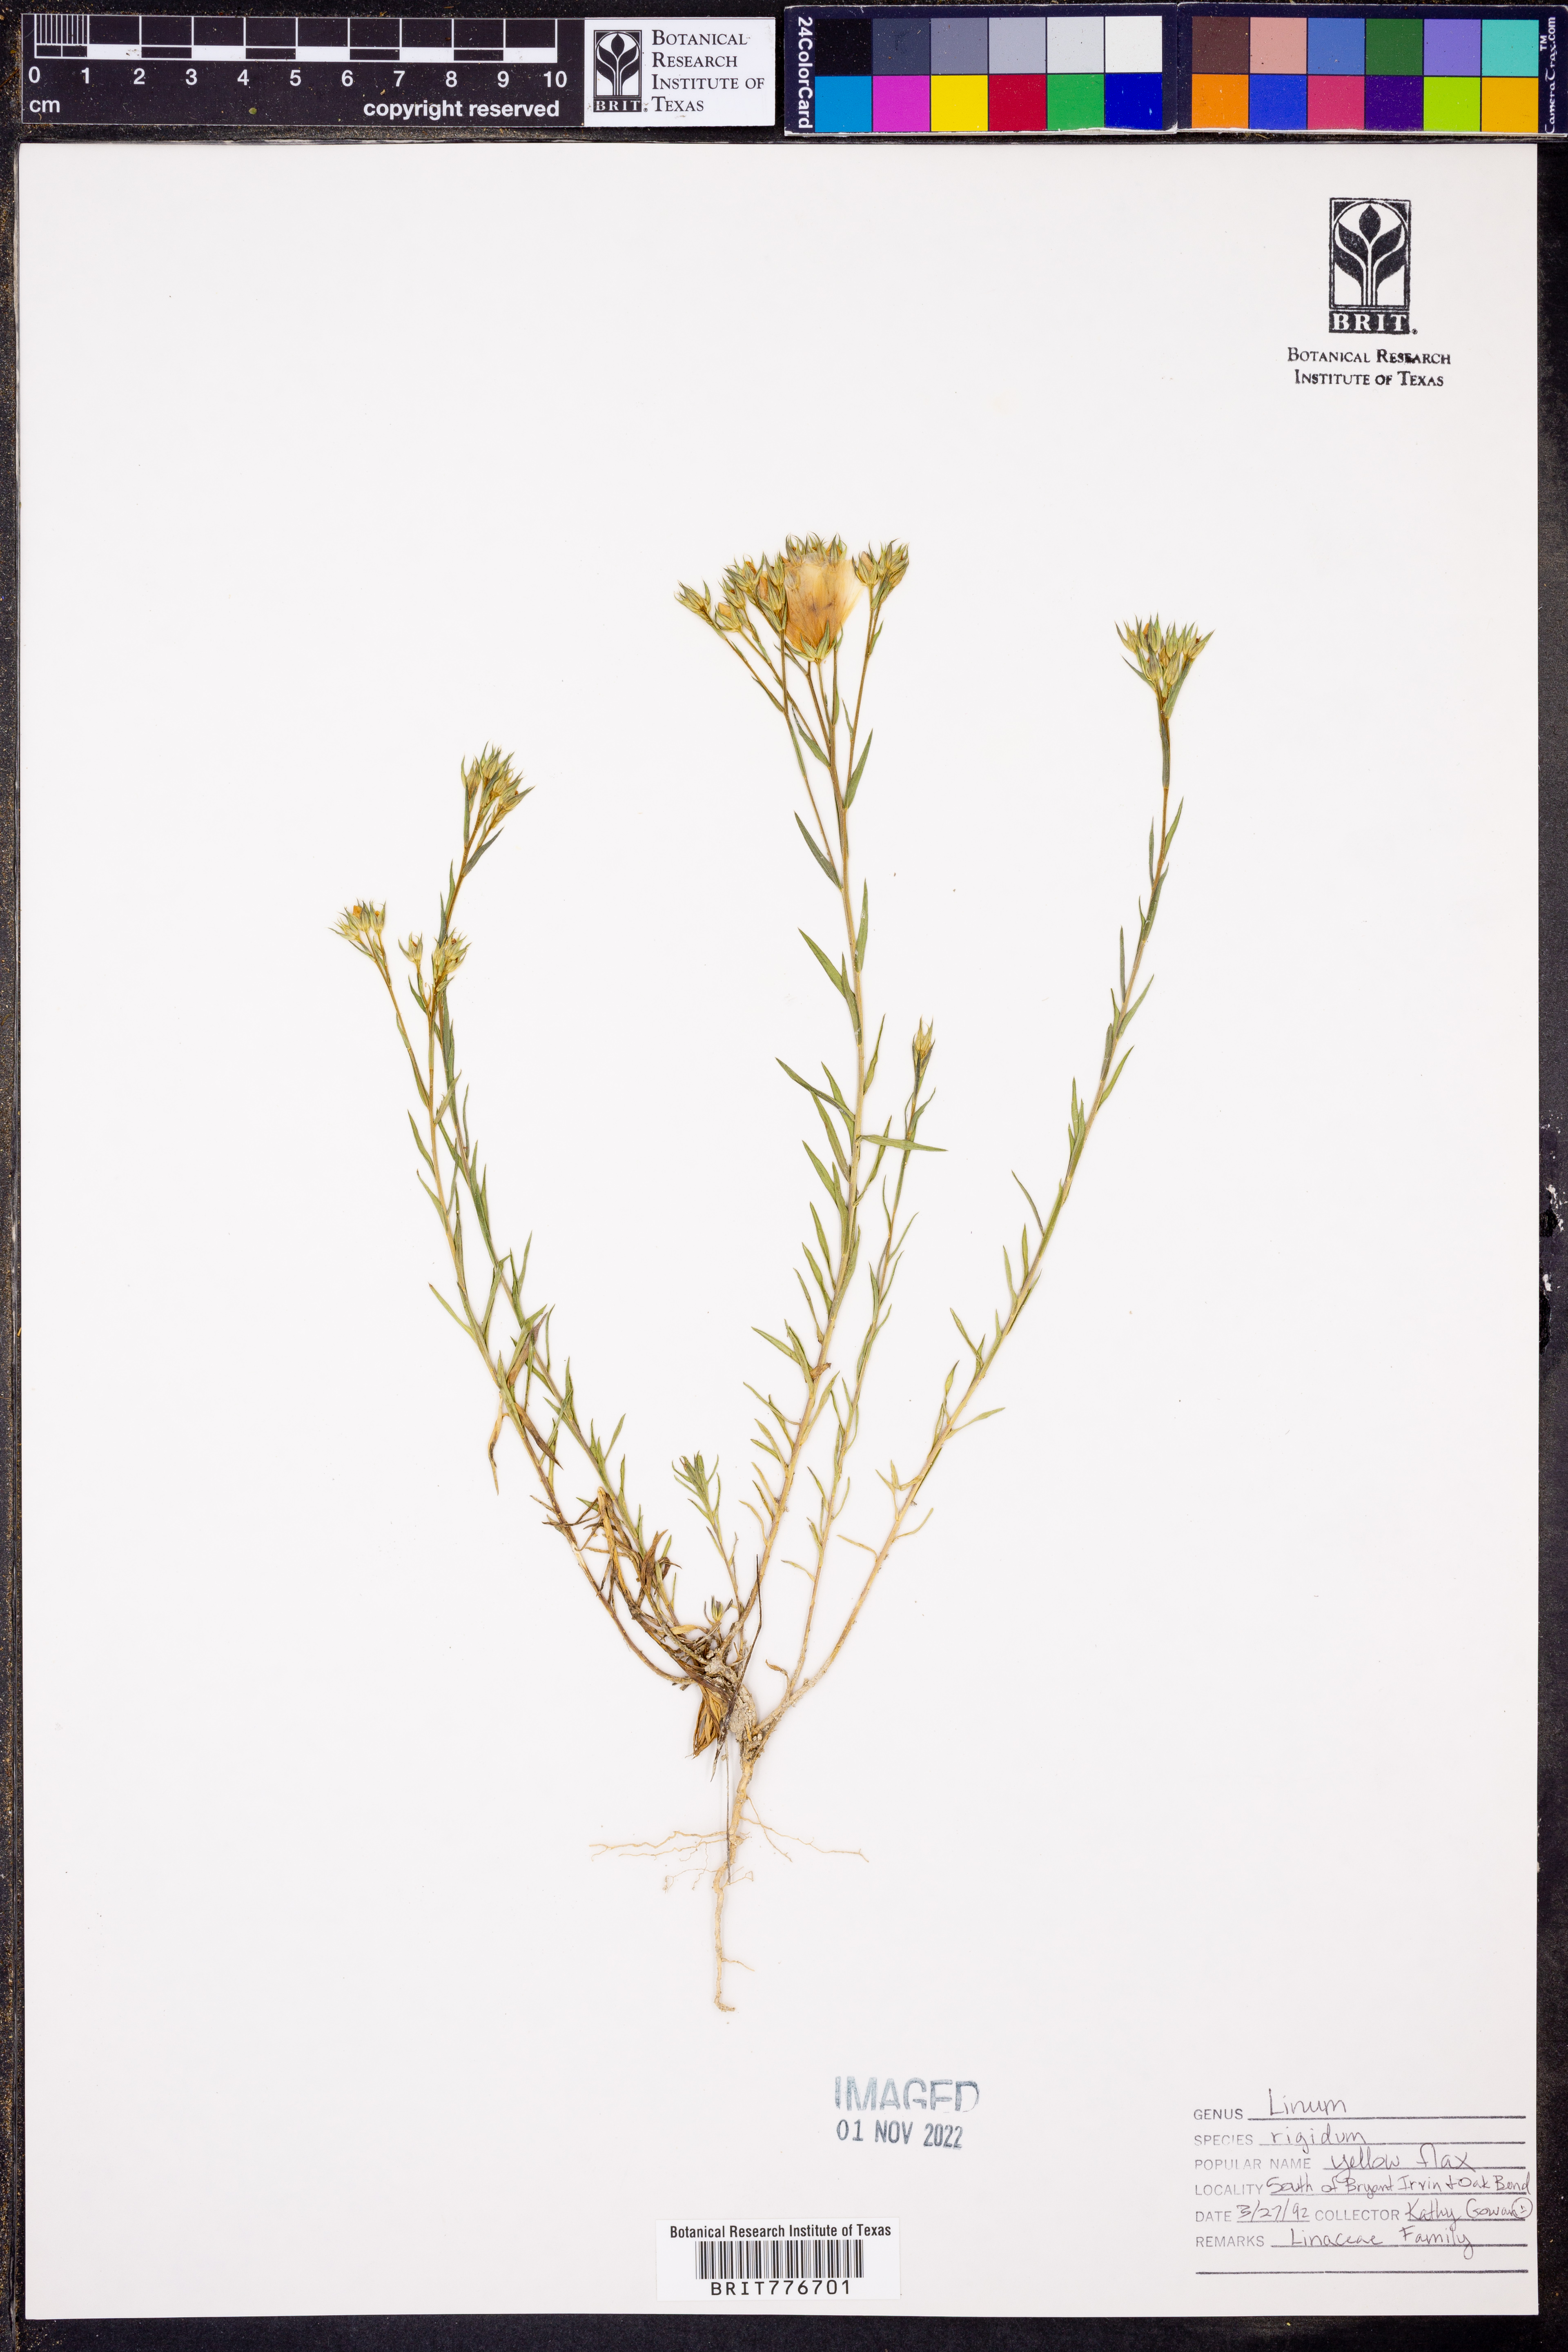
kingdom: Plantae
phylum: Tracheophyta
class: Magnoliopsida
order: Malpighiales
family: Linaceae
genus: Linum
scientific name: Linum rigidum
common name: Stiff-stem flax
